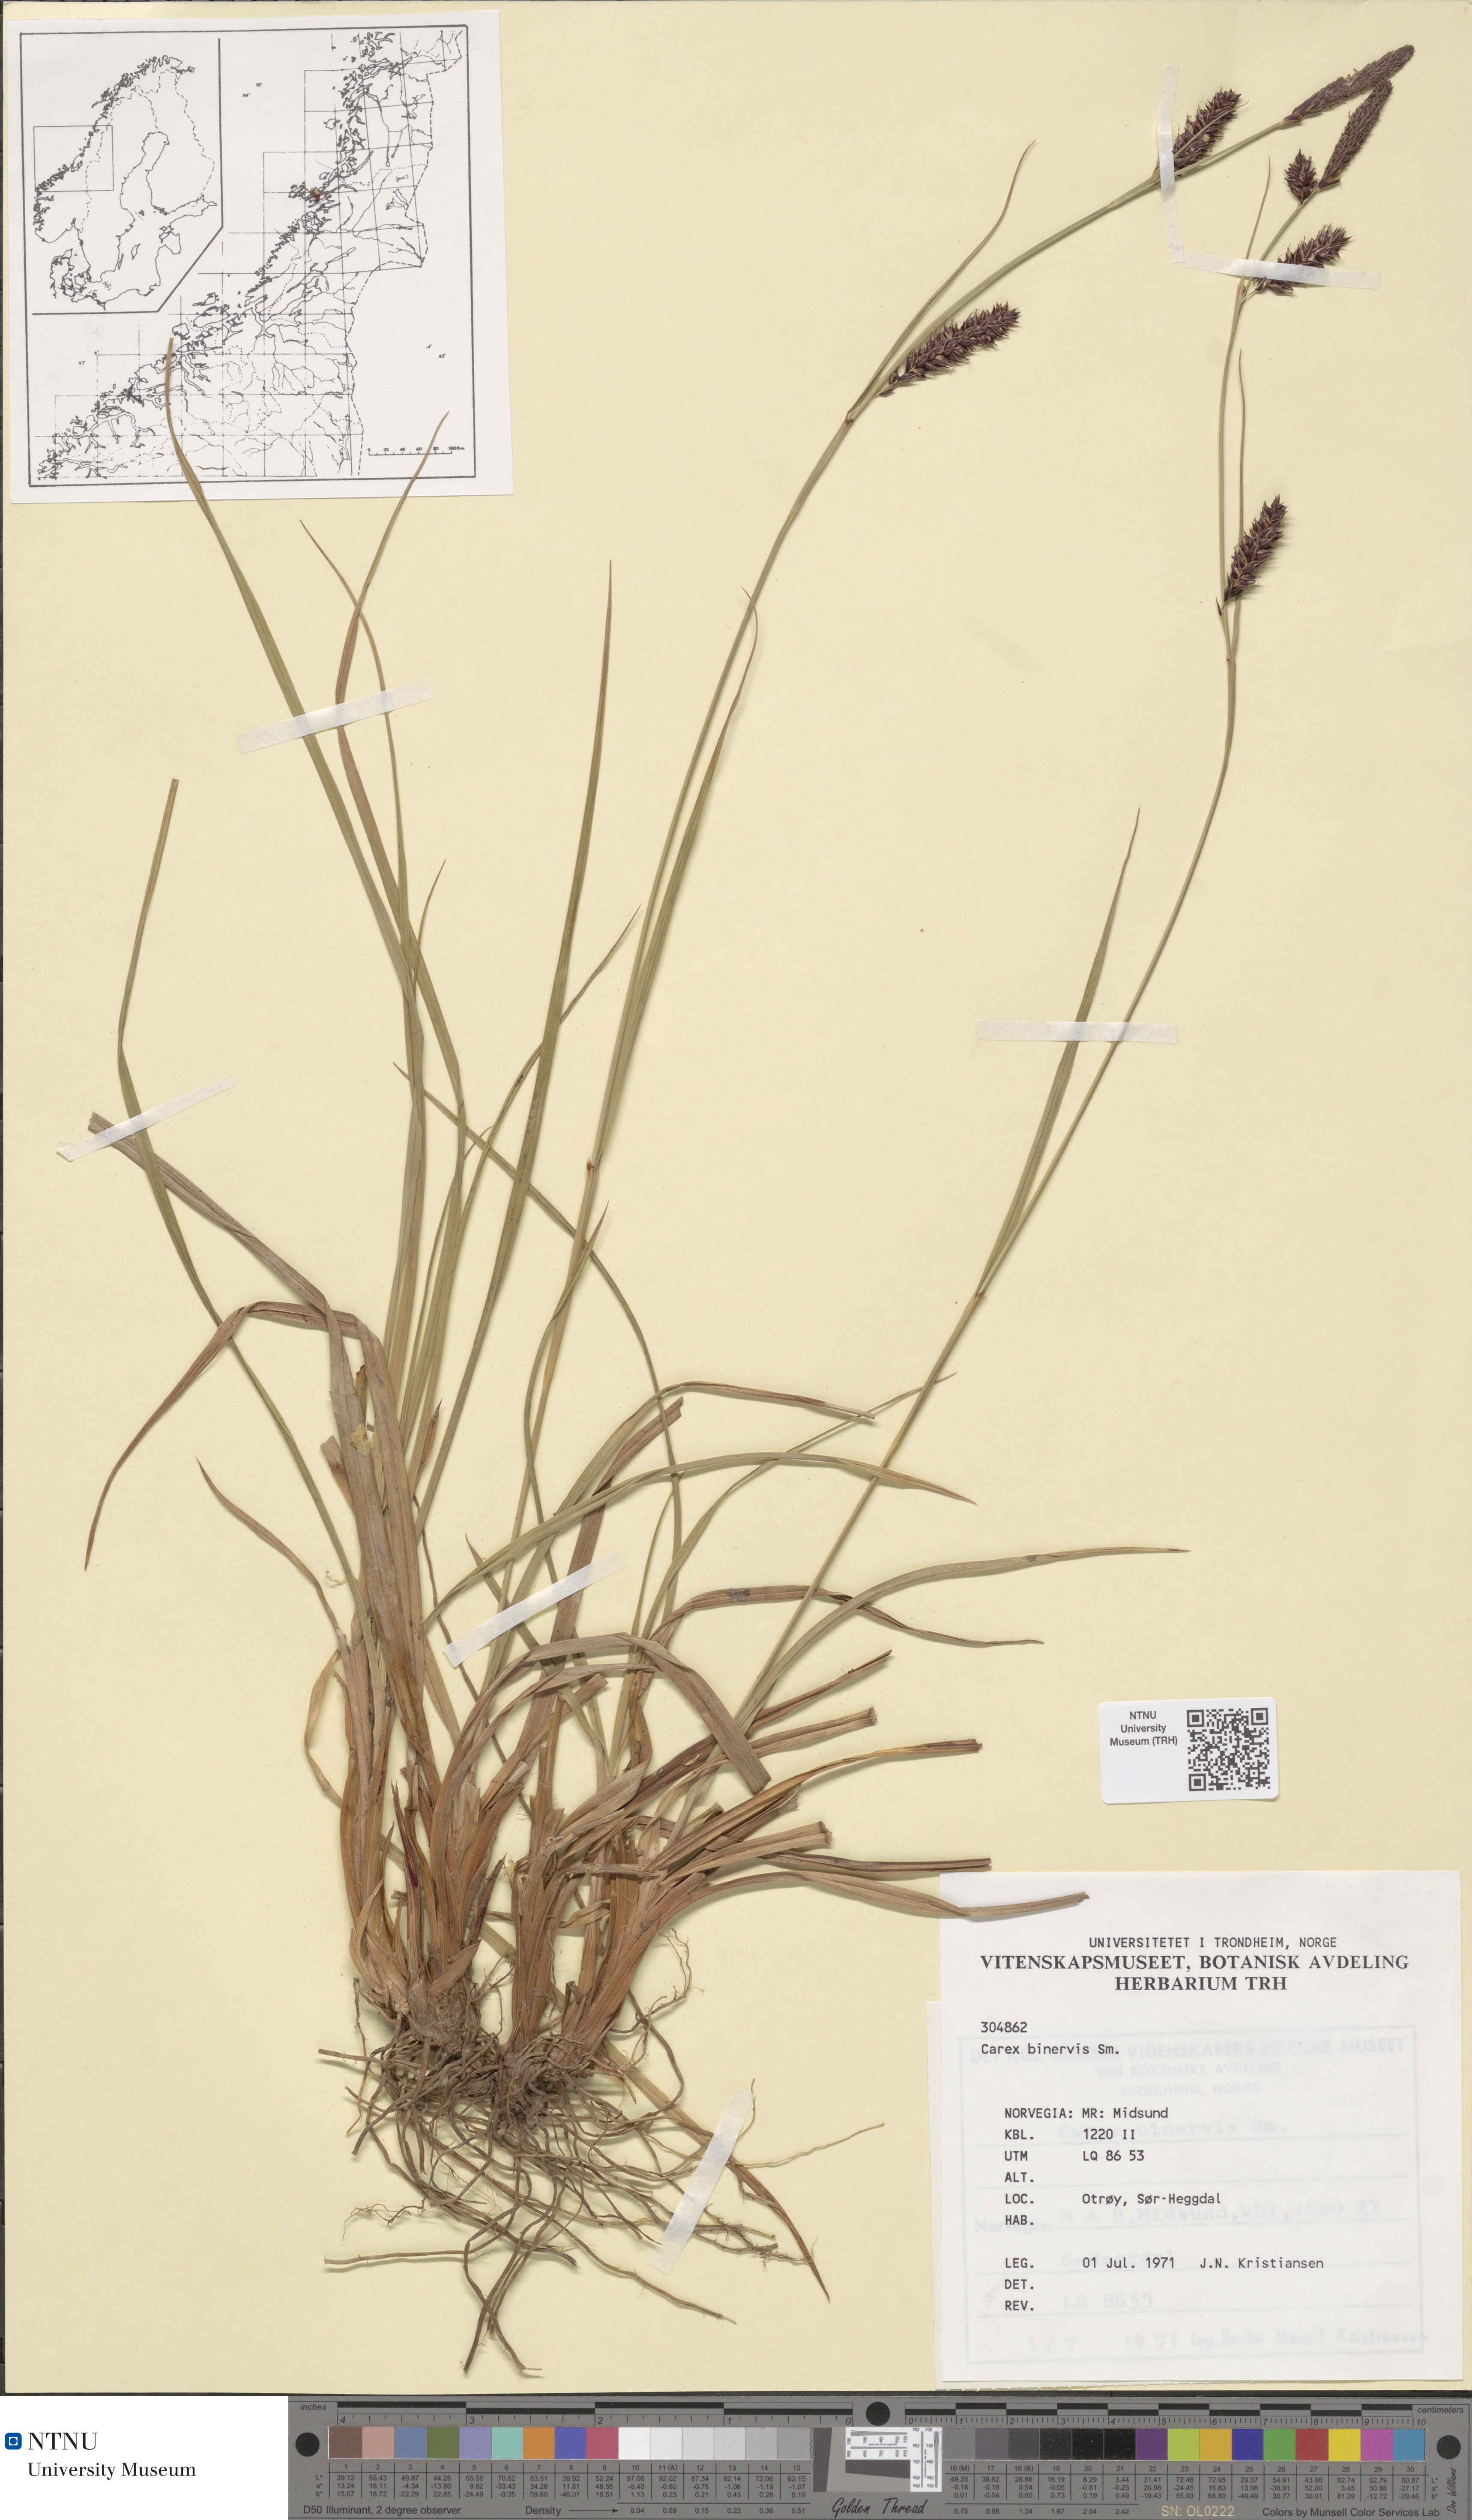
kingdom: Plantae
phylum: Tracheophyta
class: Liliopsida
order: Poales
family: Cyperaceae
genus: Carex
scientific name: Carex binervis
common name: Green-ribbed sedge
